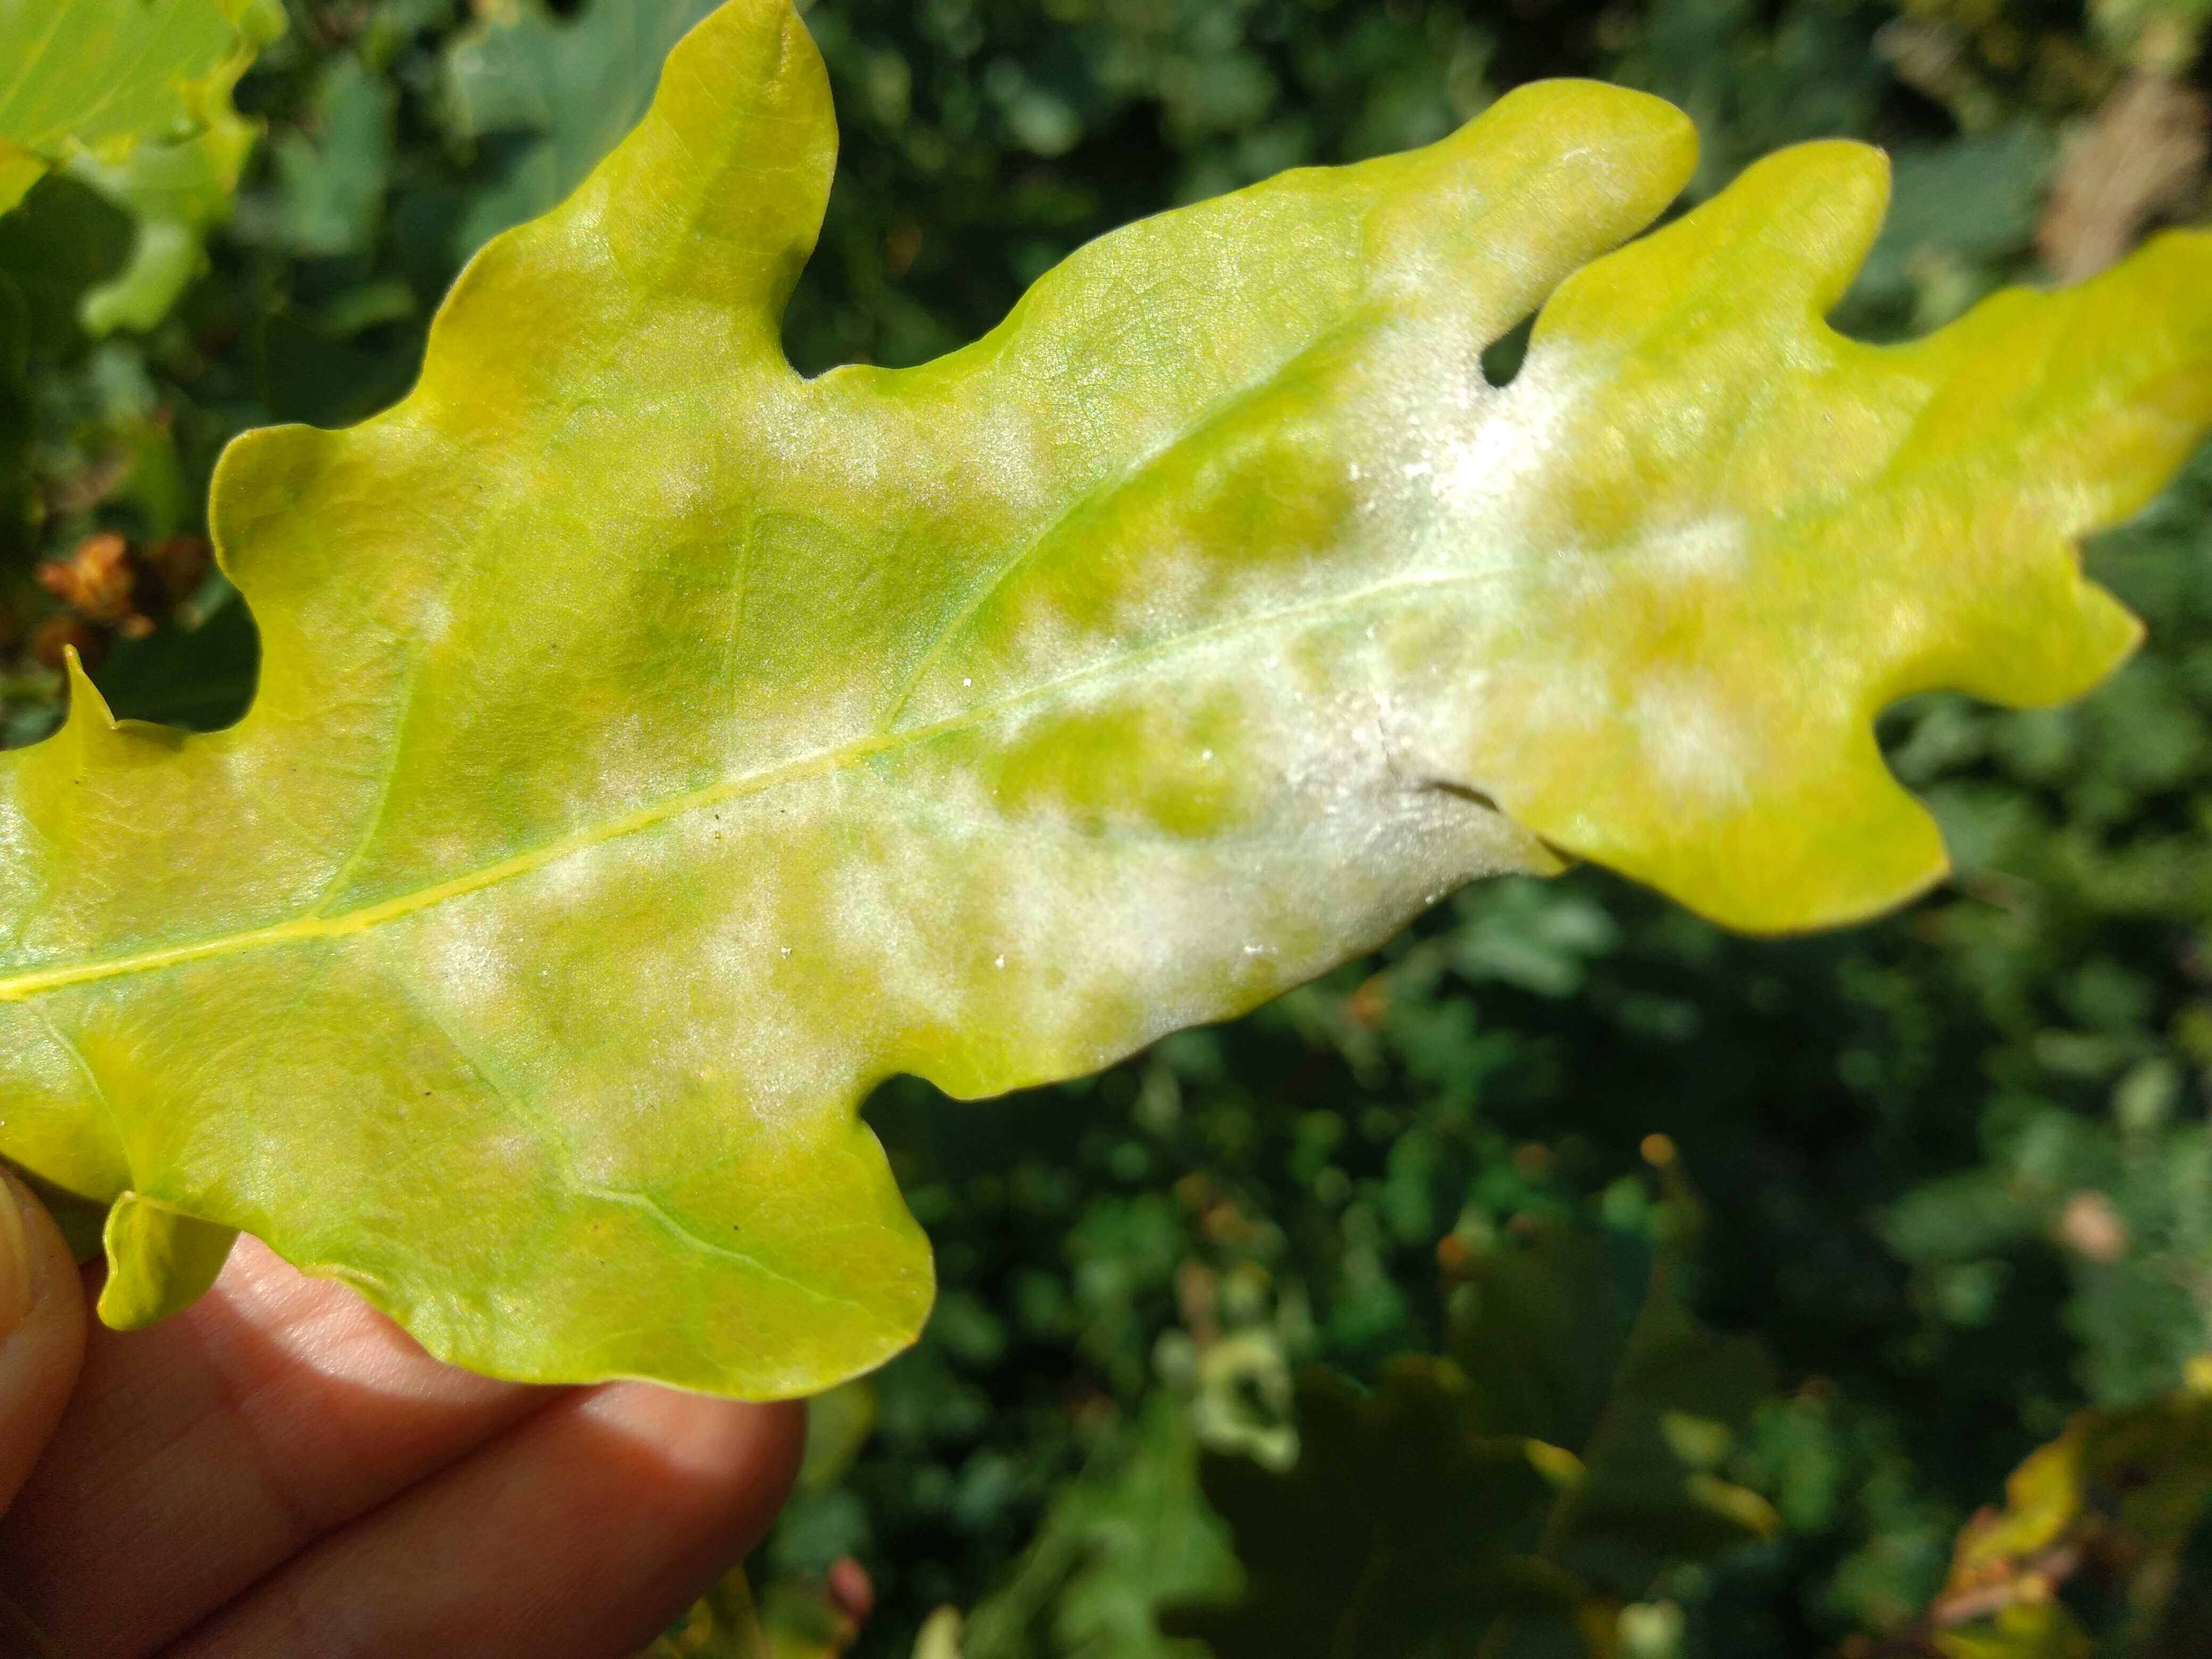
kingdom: Fungi
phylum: Ascomycota
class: Leotiomycetes
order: Helotiales
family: Erysiphaceae
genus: Erysiphe
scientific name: Erysiphe alphitoides
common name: ege-meldug
